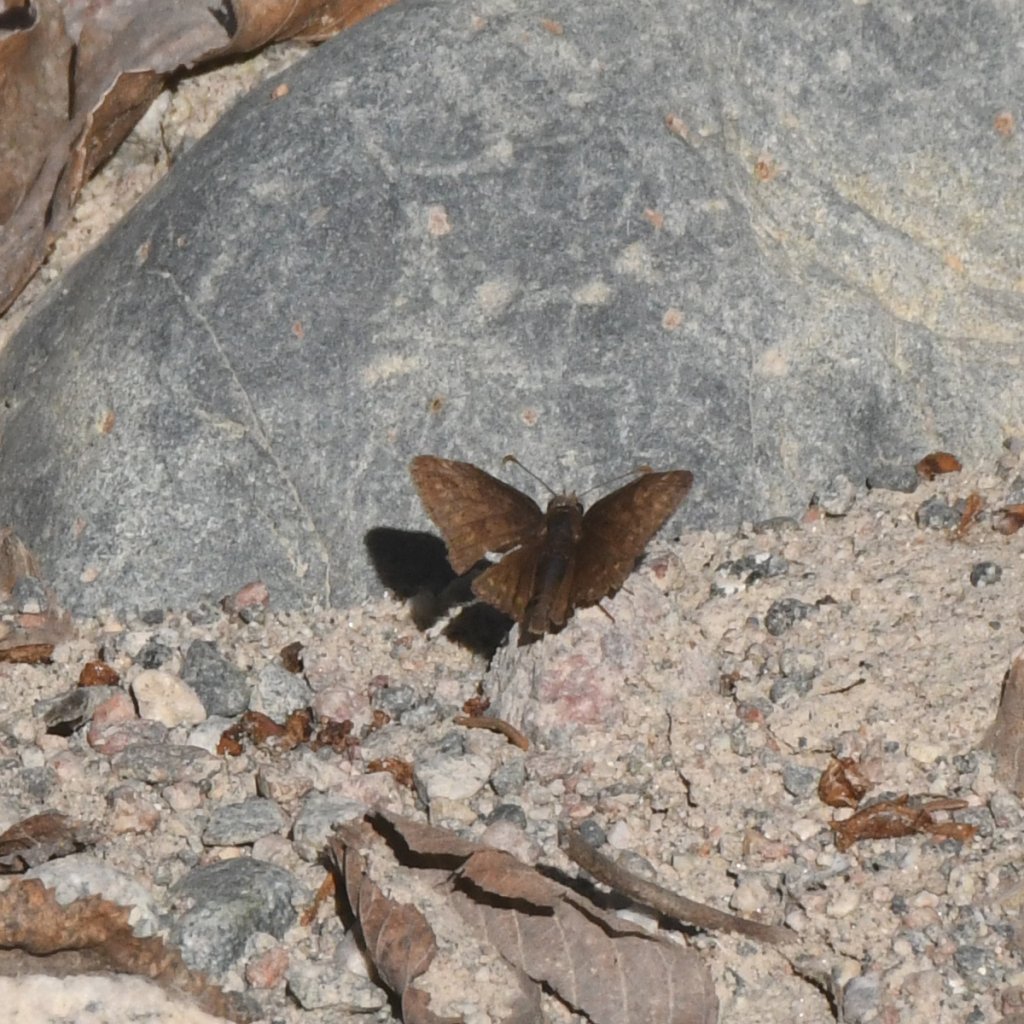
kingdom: Animalia
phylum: Arthropoda
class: Insecta
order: Lepidoptera
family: Hesperiidae
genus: Erynnis
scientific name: Erynnis icelus
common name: Dreamy Duskywing
